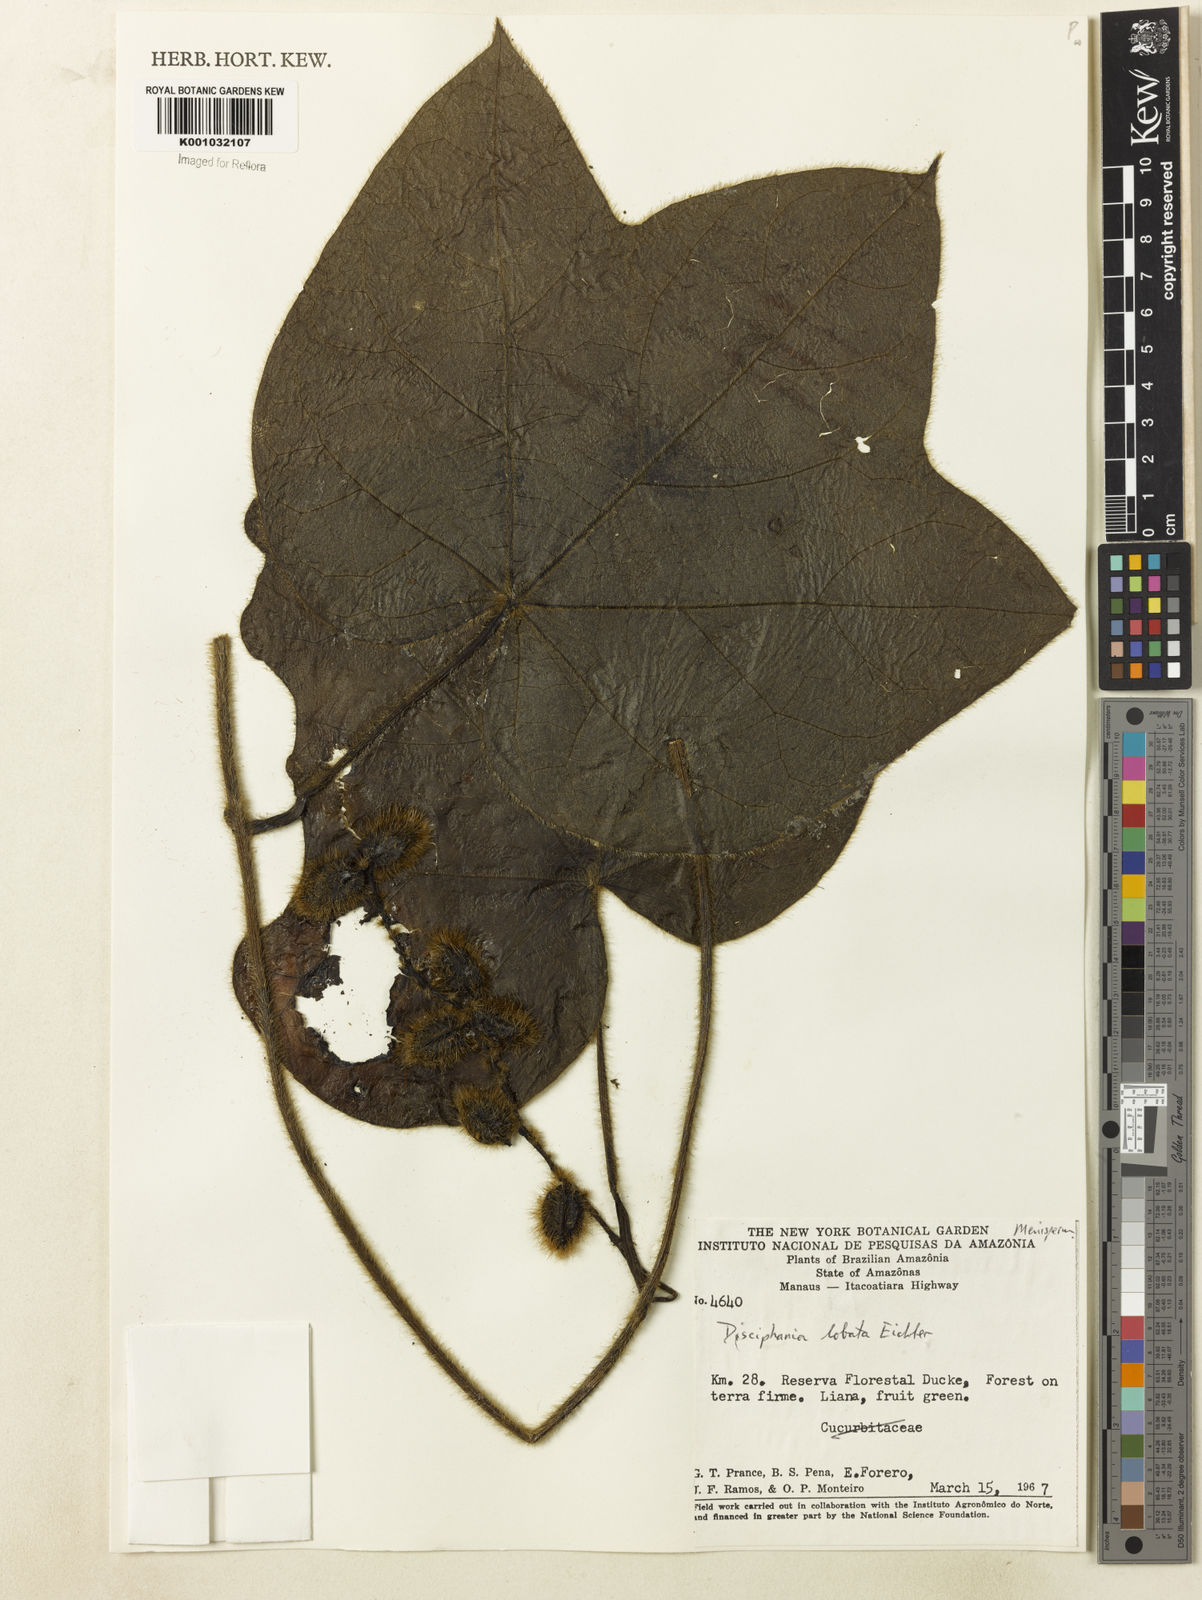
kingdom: Plantae
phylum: Tracheophyta
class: Magnoliopsida
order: Ranunculales
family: Menispermaceae
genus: Disciphania
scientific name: Disciphania lobata
